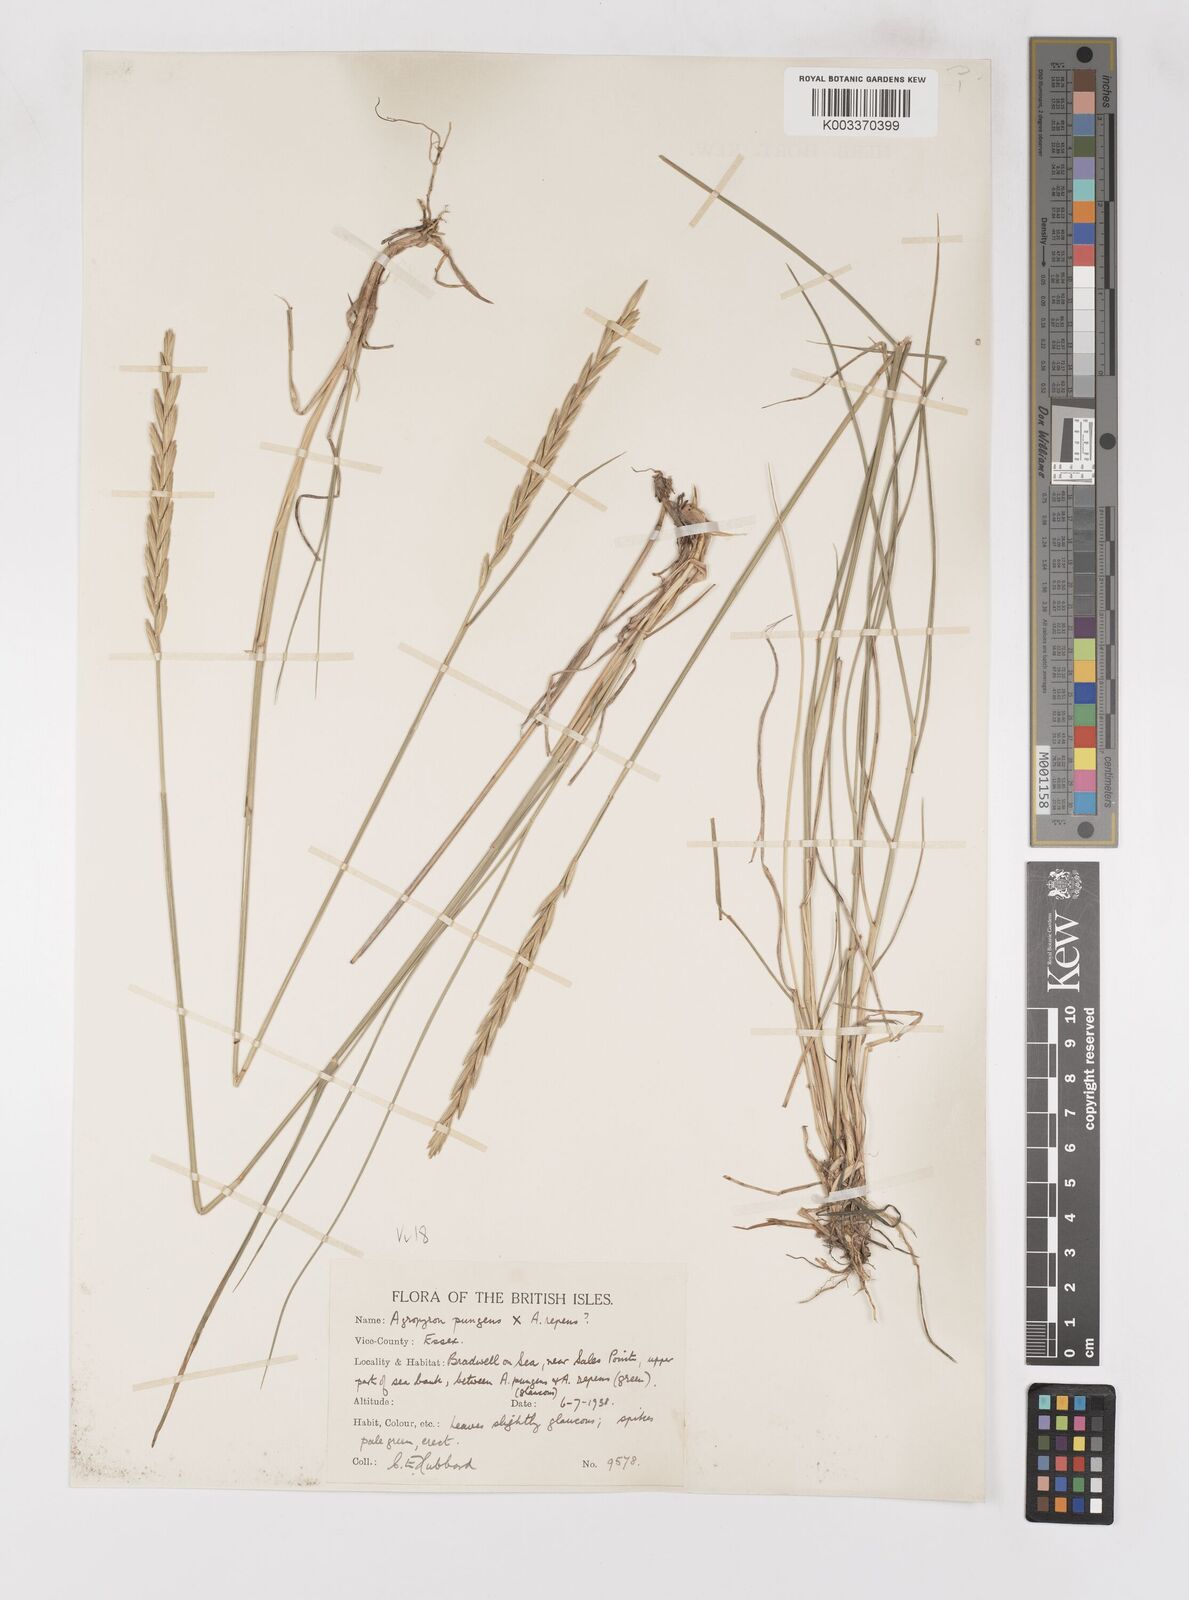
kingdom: Plantae
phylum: Tracheophyta
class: Liliopsida
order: Poales
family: Poaceae
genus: Elymus
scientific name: Elymus oliveri
